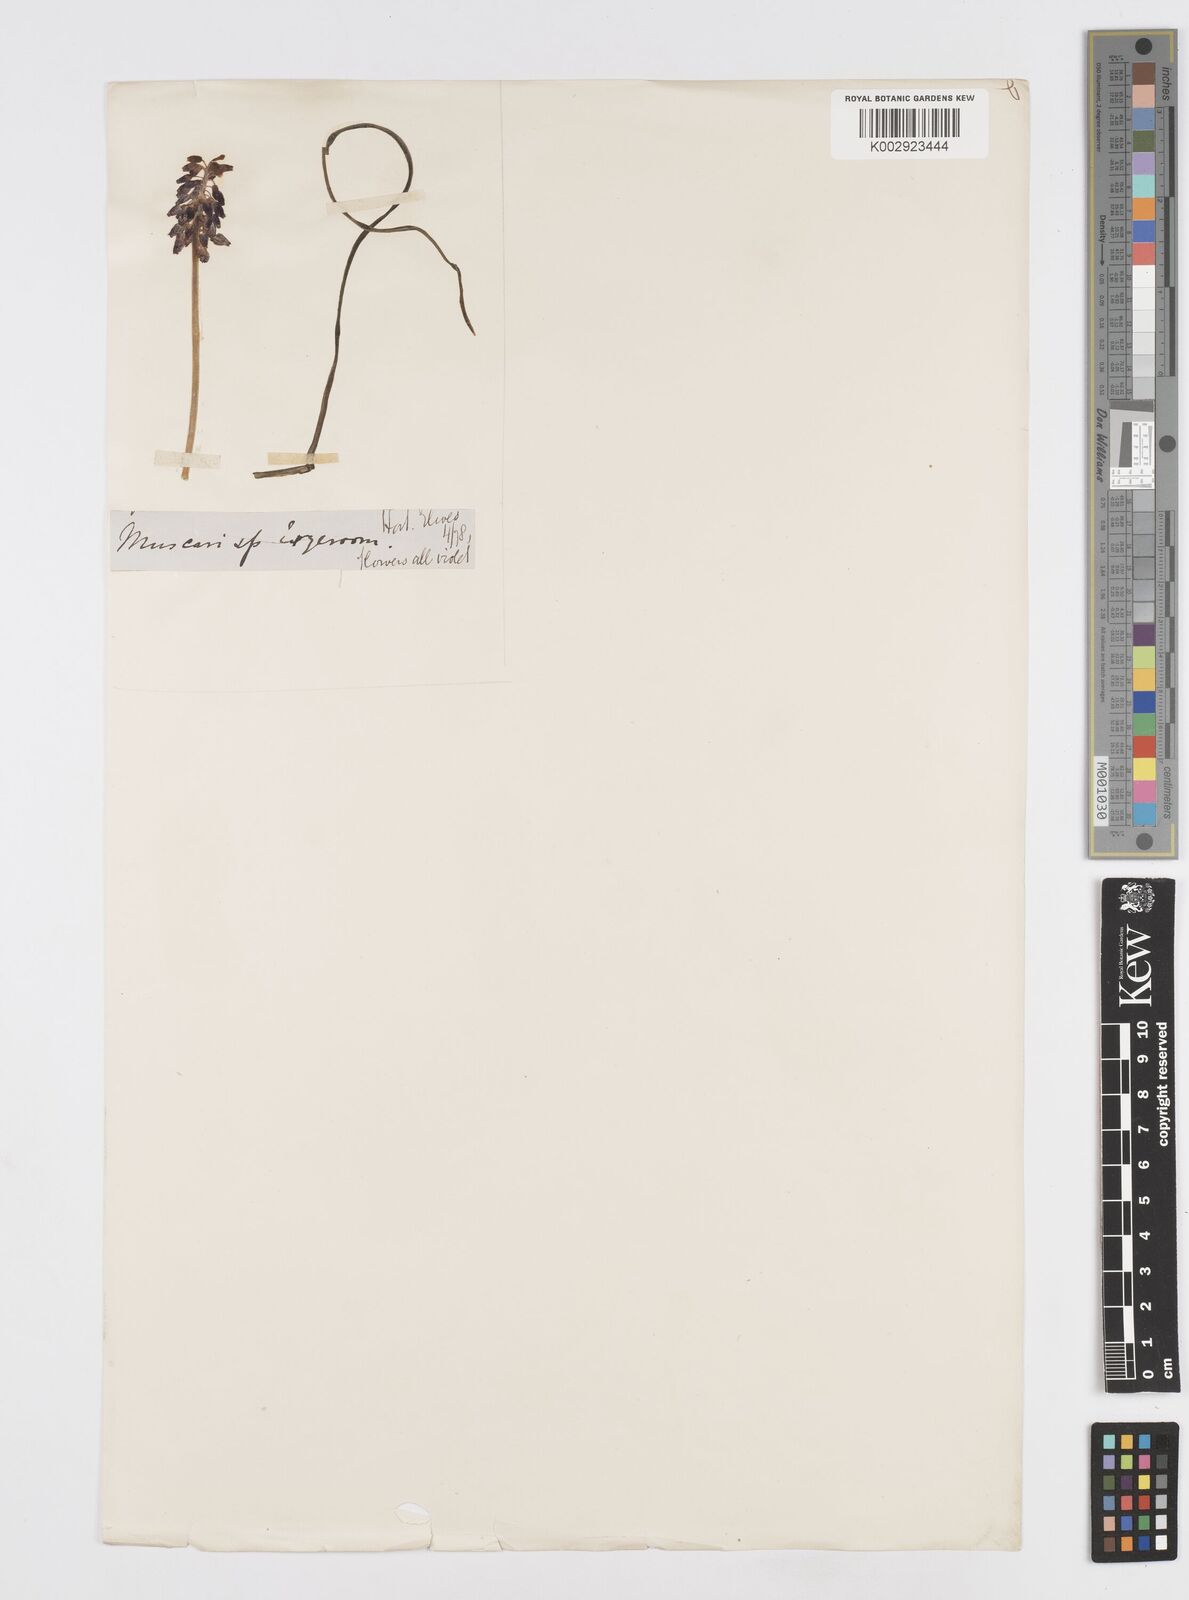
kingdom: Plantae
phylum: Tracheophyta
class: Liliopsida
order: Asparagales
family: Asparagaceae
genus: Muscari
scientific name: Muscari neglectum
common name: Grape-hyacinth
